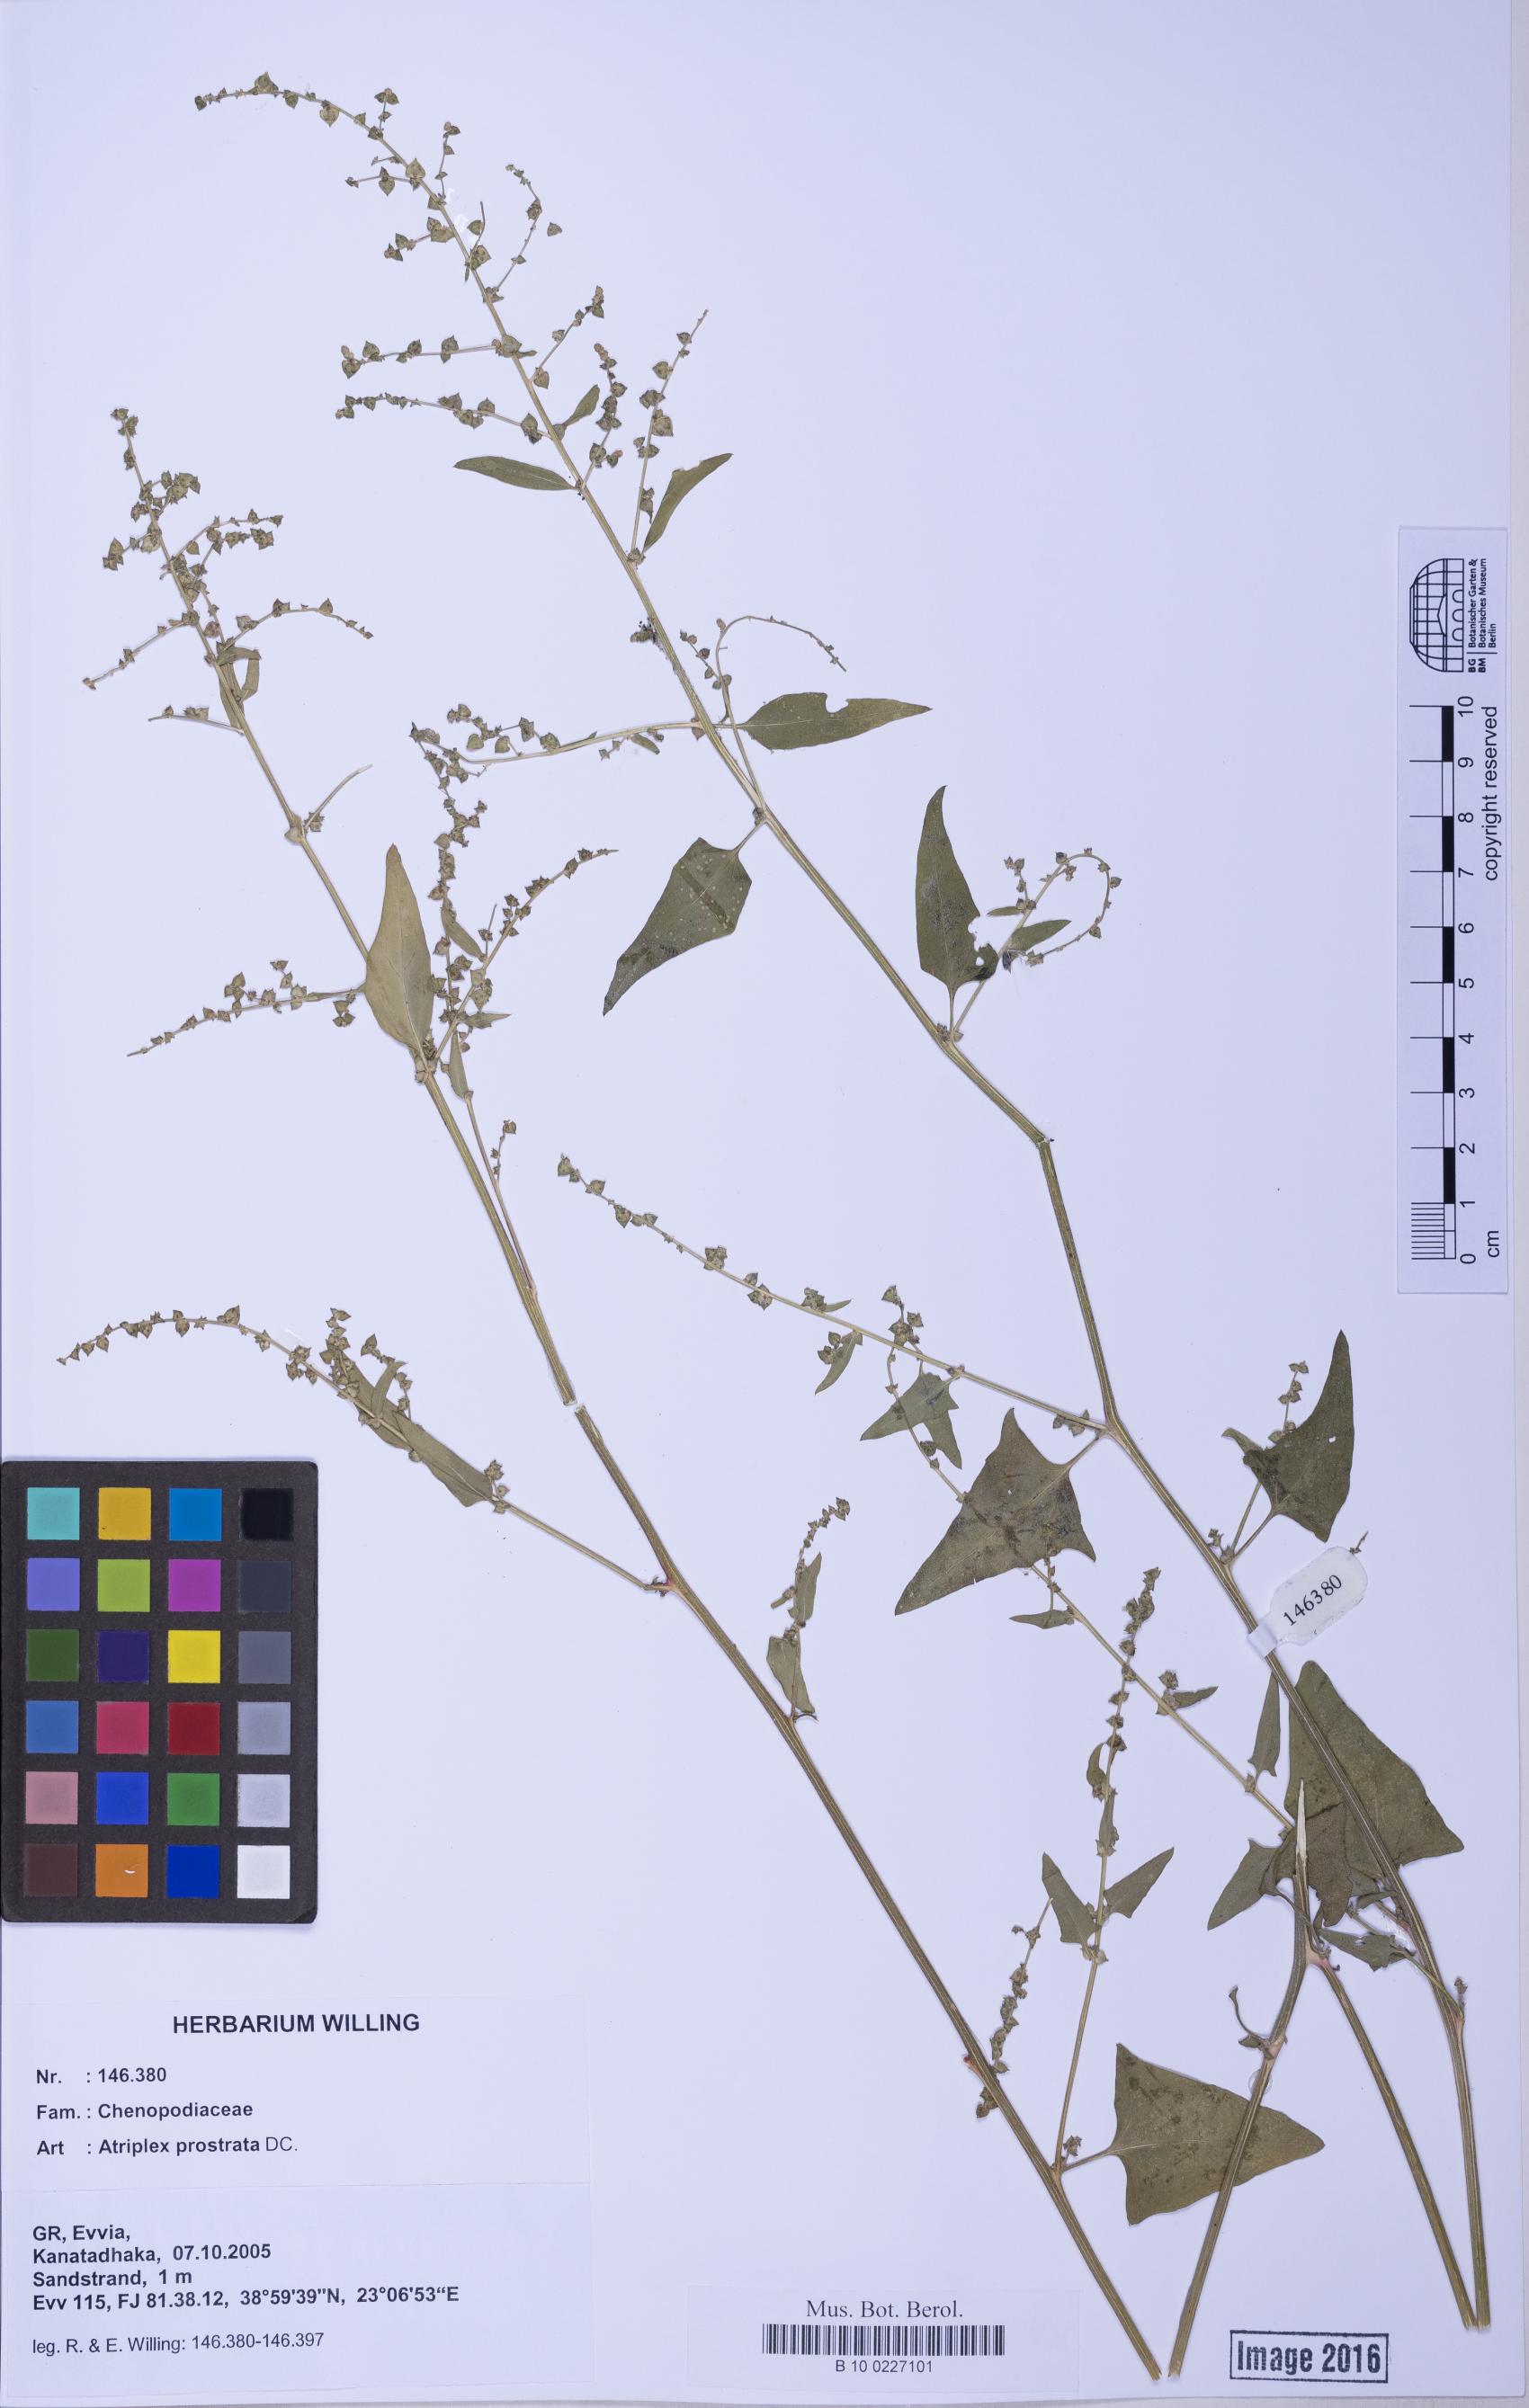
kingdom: Plantae
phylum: Tracheophyta
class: Magnoliopsida
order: Caryophyllales
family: Amaranthaceae
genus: Atriplex
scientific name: Atriplex prostrata
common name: Spear-leaved orache
